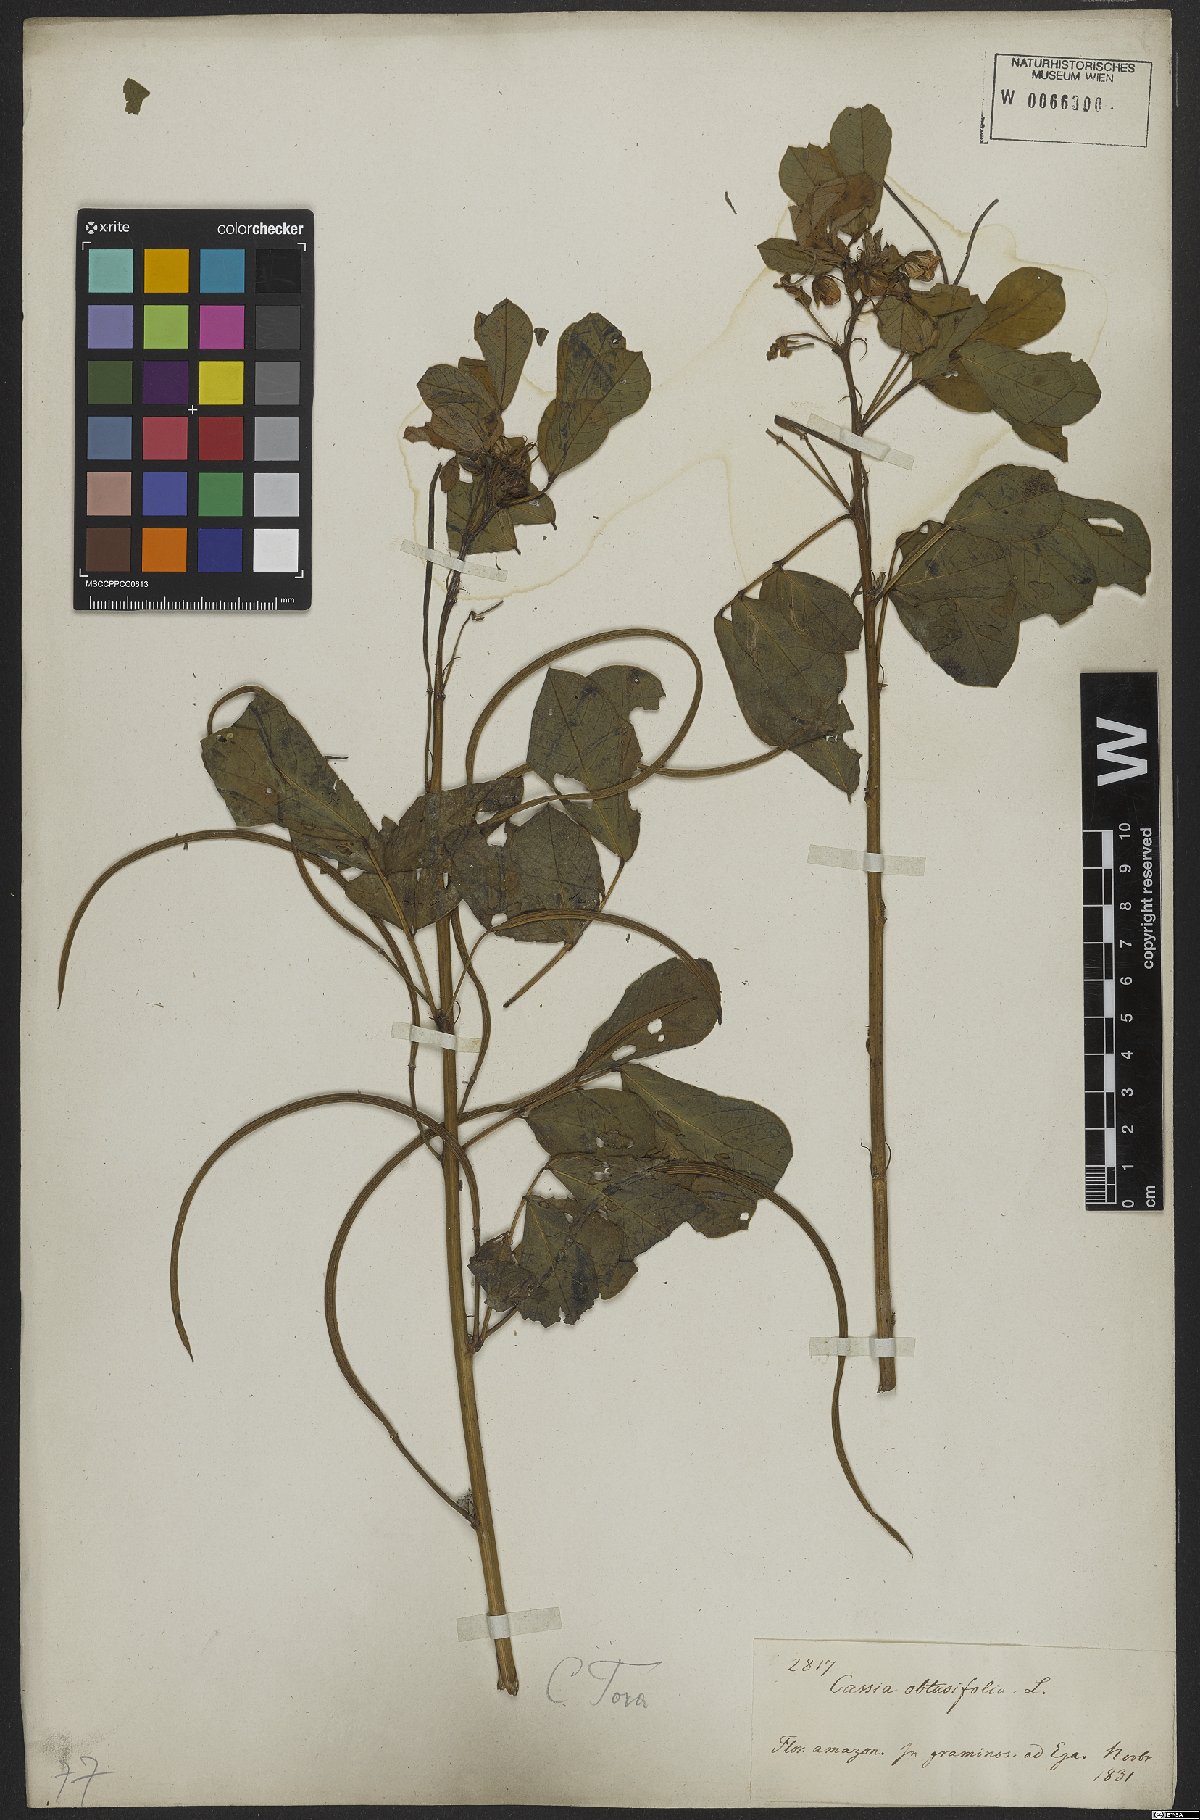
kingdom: Plantae
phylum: Tracheophyta
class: Magnoliopsida
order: Fabales
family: Fabaceae
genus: Senna
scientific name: Senna tora
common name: Sickle senna
